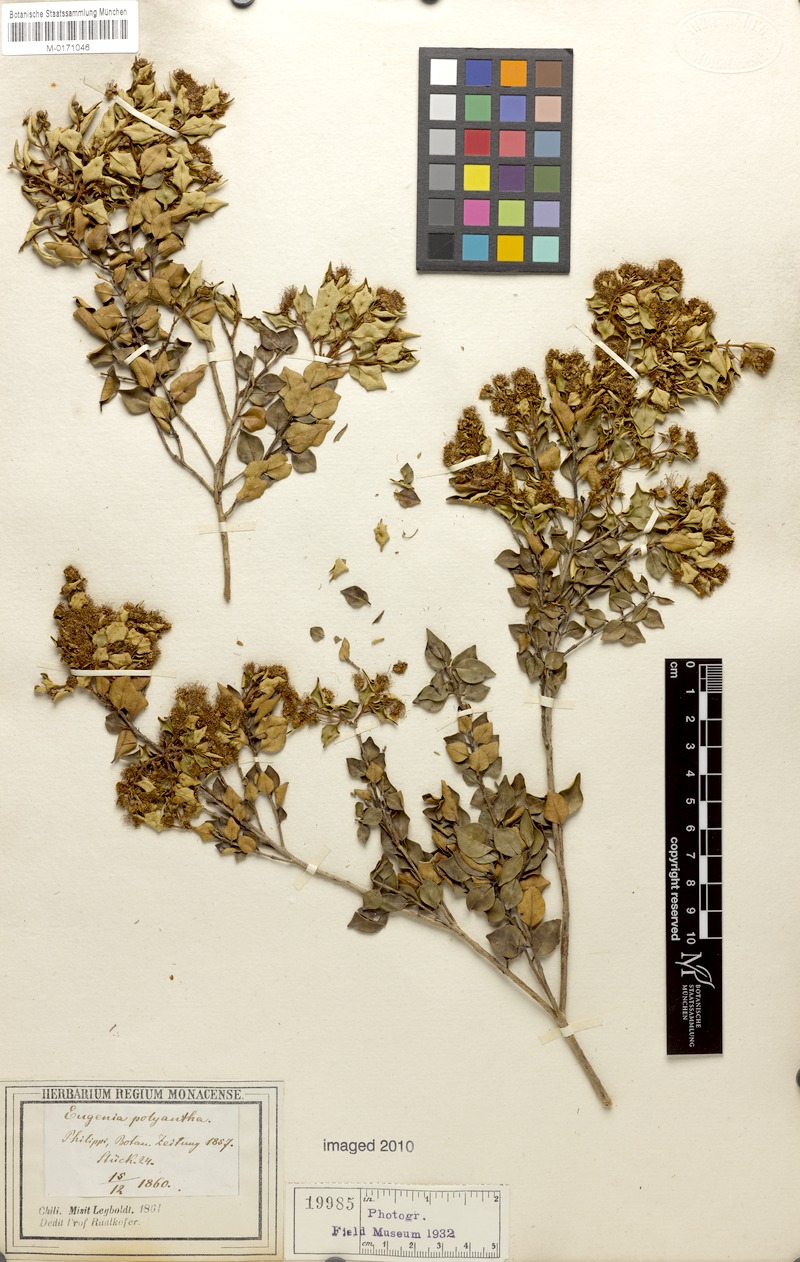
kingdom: Plantae
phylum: Tracheophyta
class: Magnoliopsida
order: Myrtales
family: Myrtaceae
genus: Myrceugenia
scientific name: Myrceugenia obtusa
